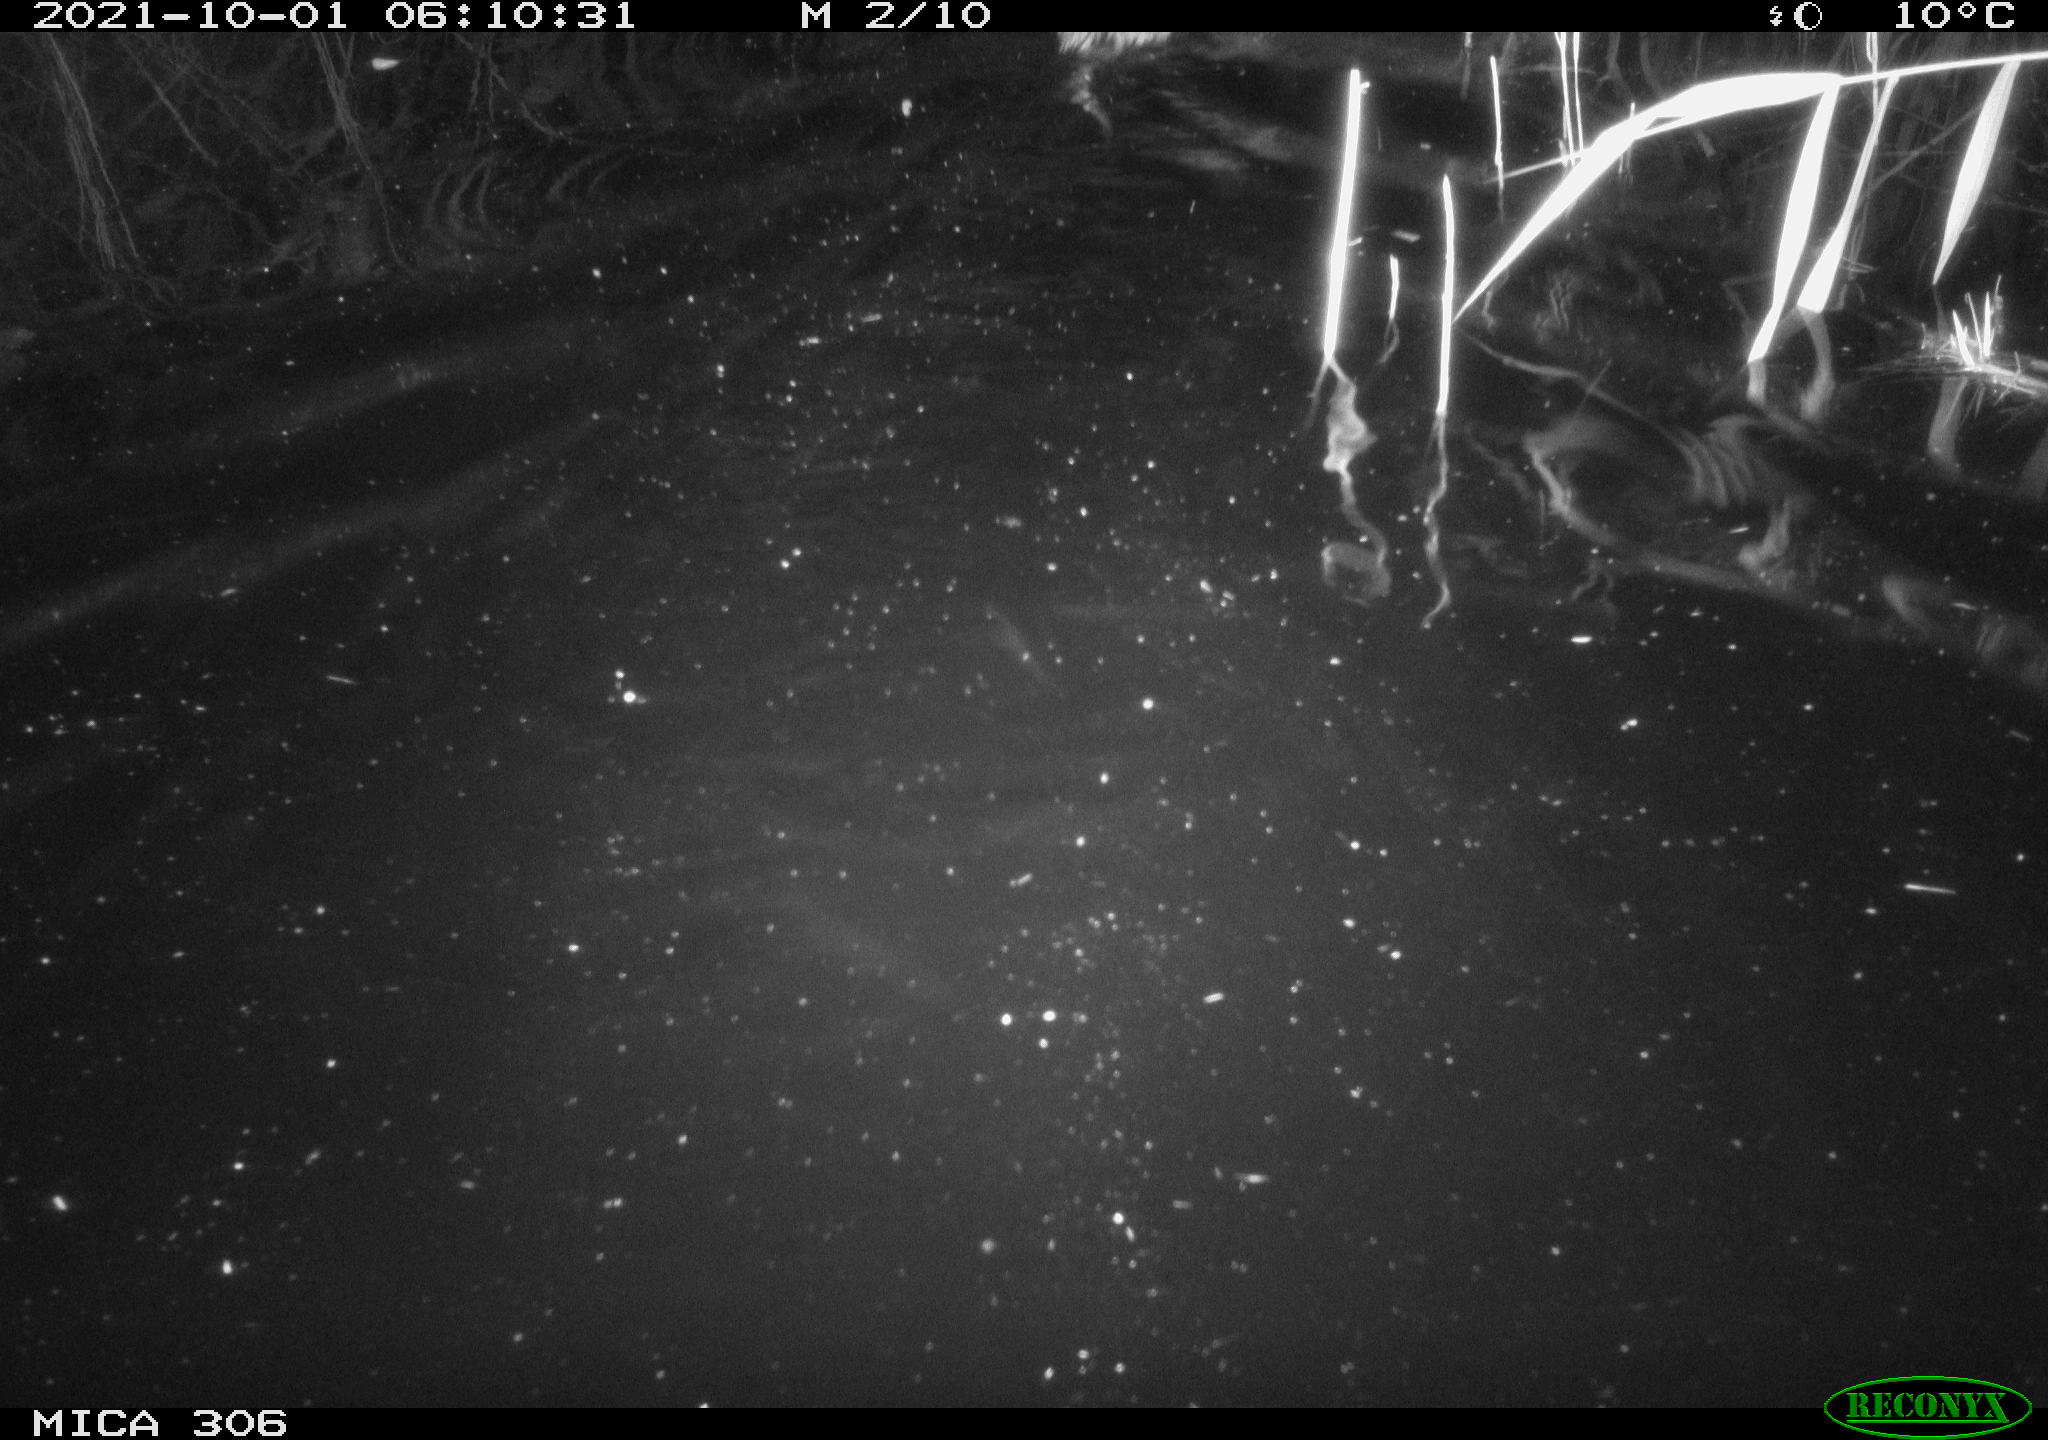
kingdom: Animalia
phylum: Chordata
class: Mammalia
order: Rodentia
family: Cricetidae
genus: Ondatra
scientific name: Ondatra zibethicus
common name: Muskrat
